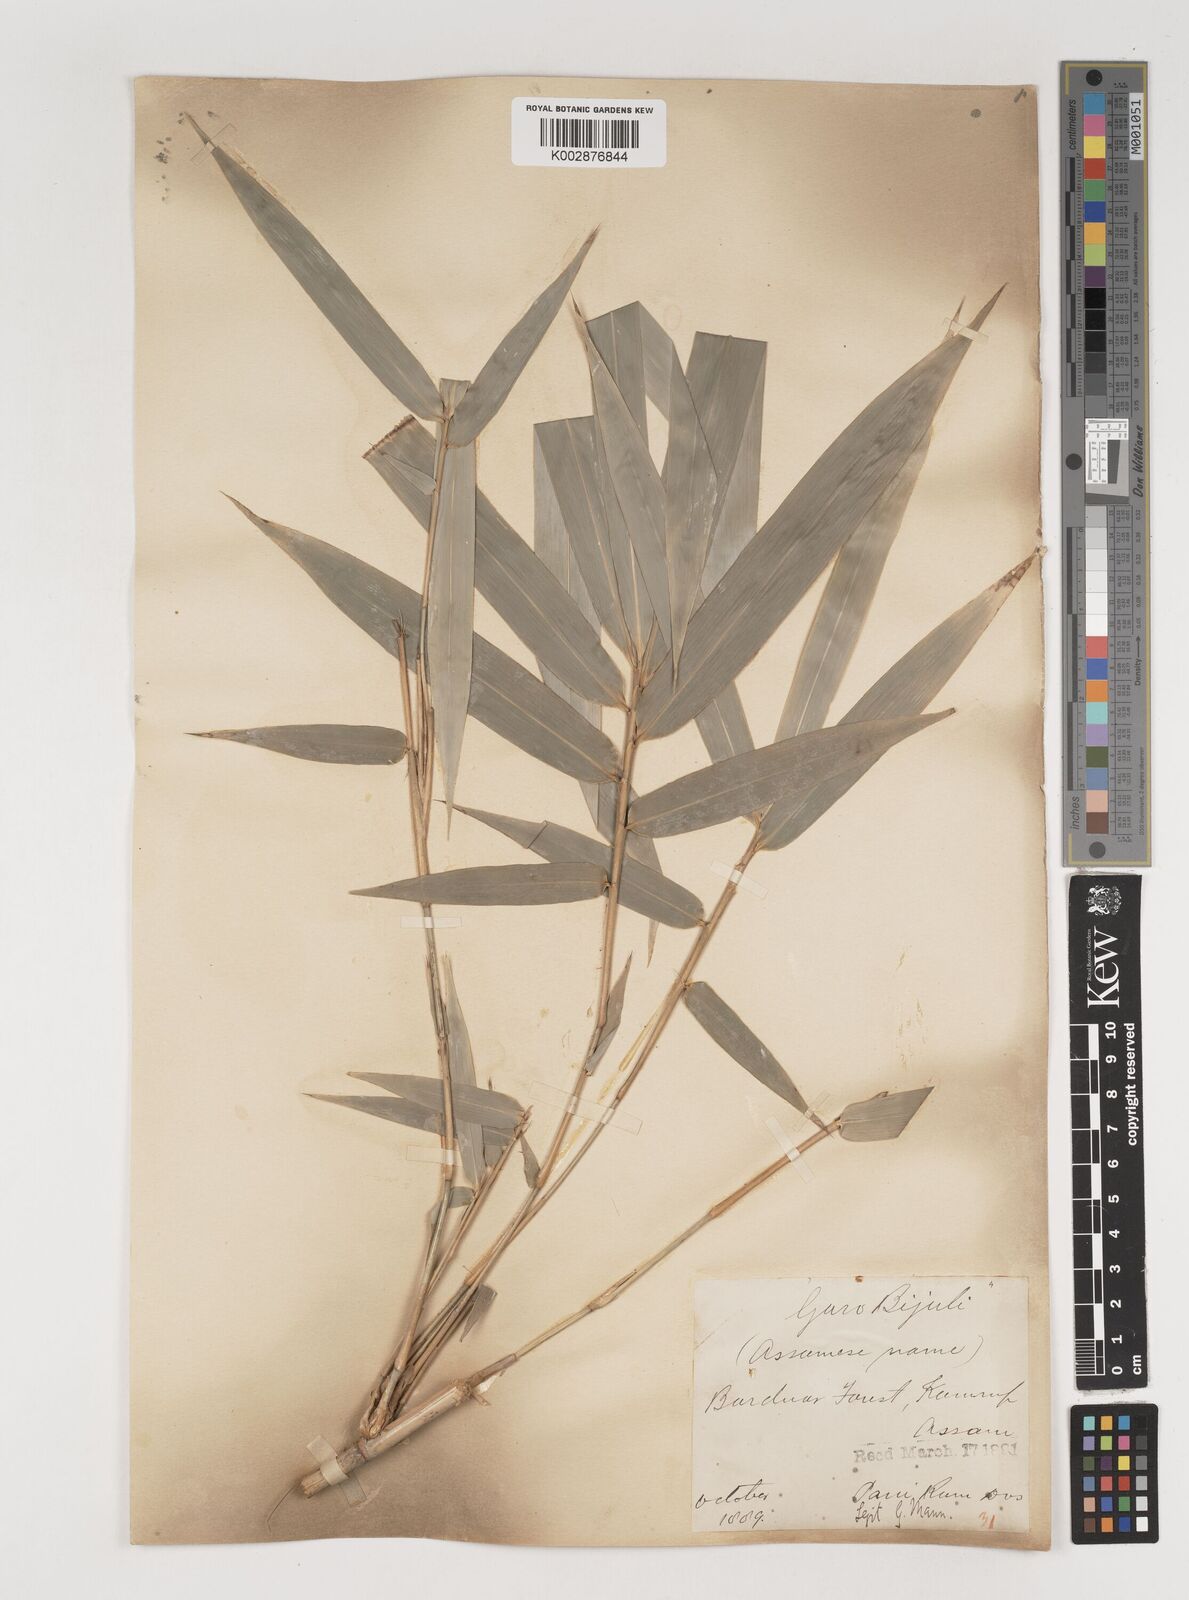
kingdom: Plantae
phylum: Tracheophyta
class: Liliopsida
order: Poales
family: Poaceae
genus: Bambusa
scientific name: Bambusa tulda
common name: Bengal bamboo
